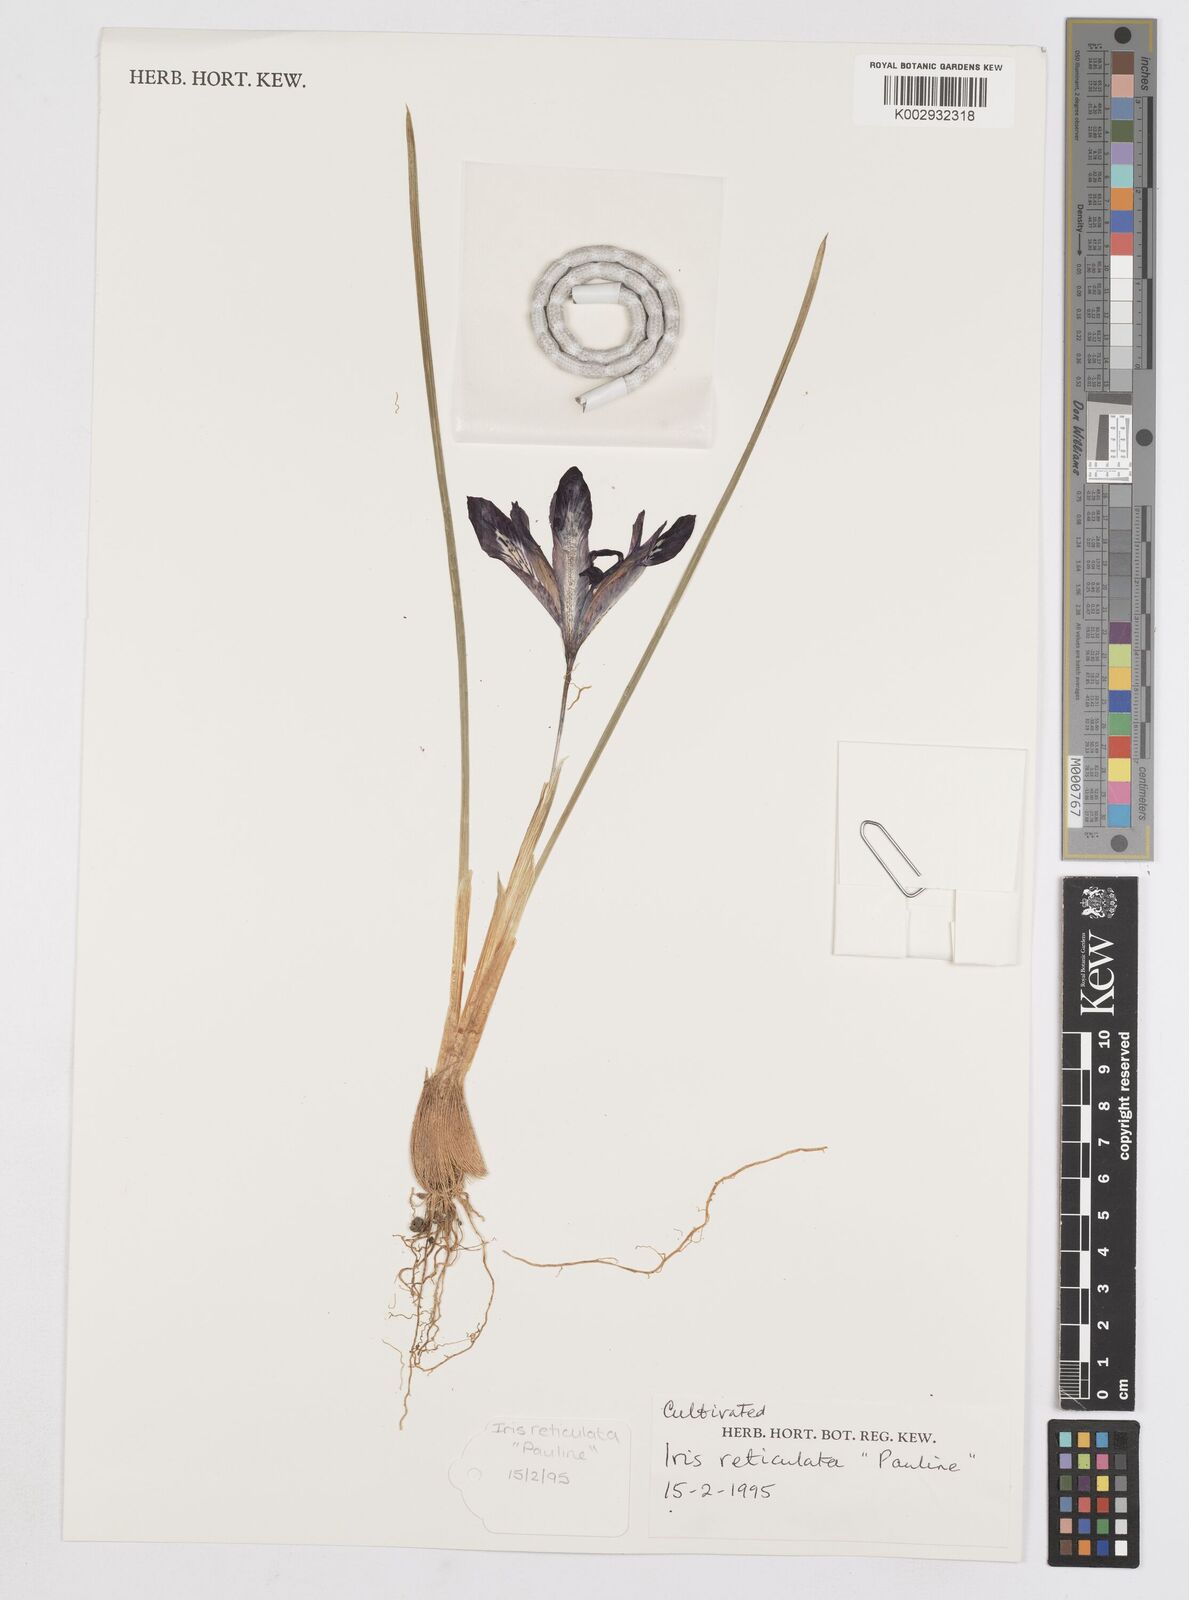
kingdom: Plantae
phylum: Tracheophyta
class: Liliopsida
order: Asparagales
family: Iridaceae
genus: Iris
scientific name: Iris reticulata
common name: Netted iris
